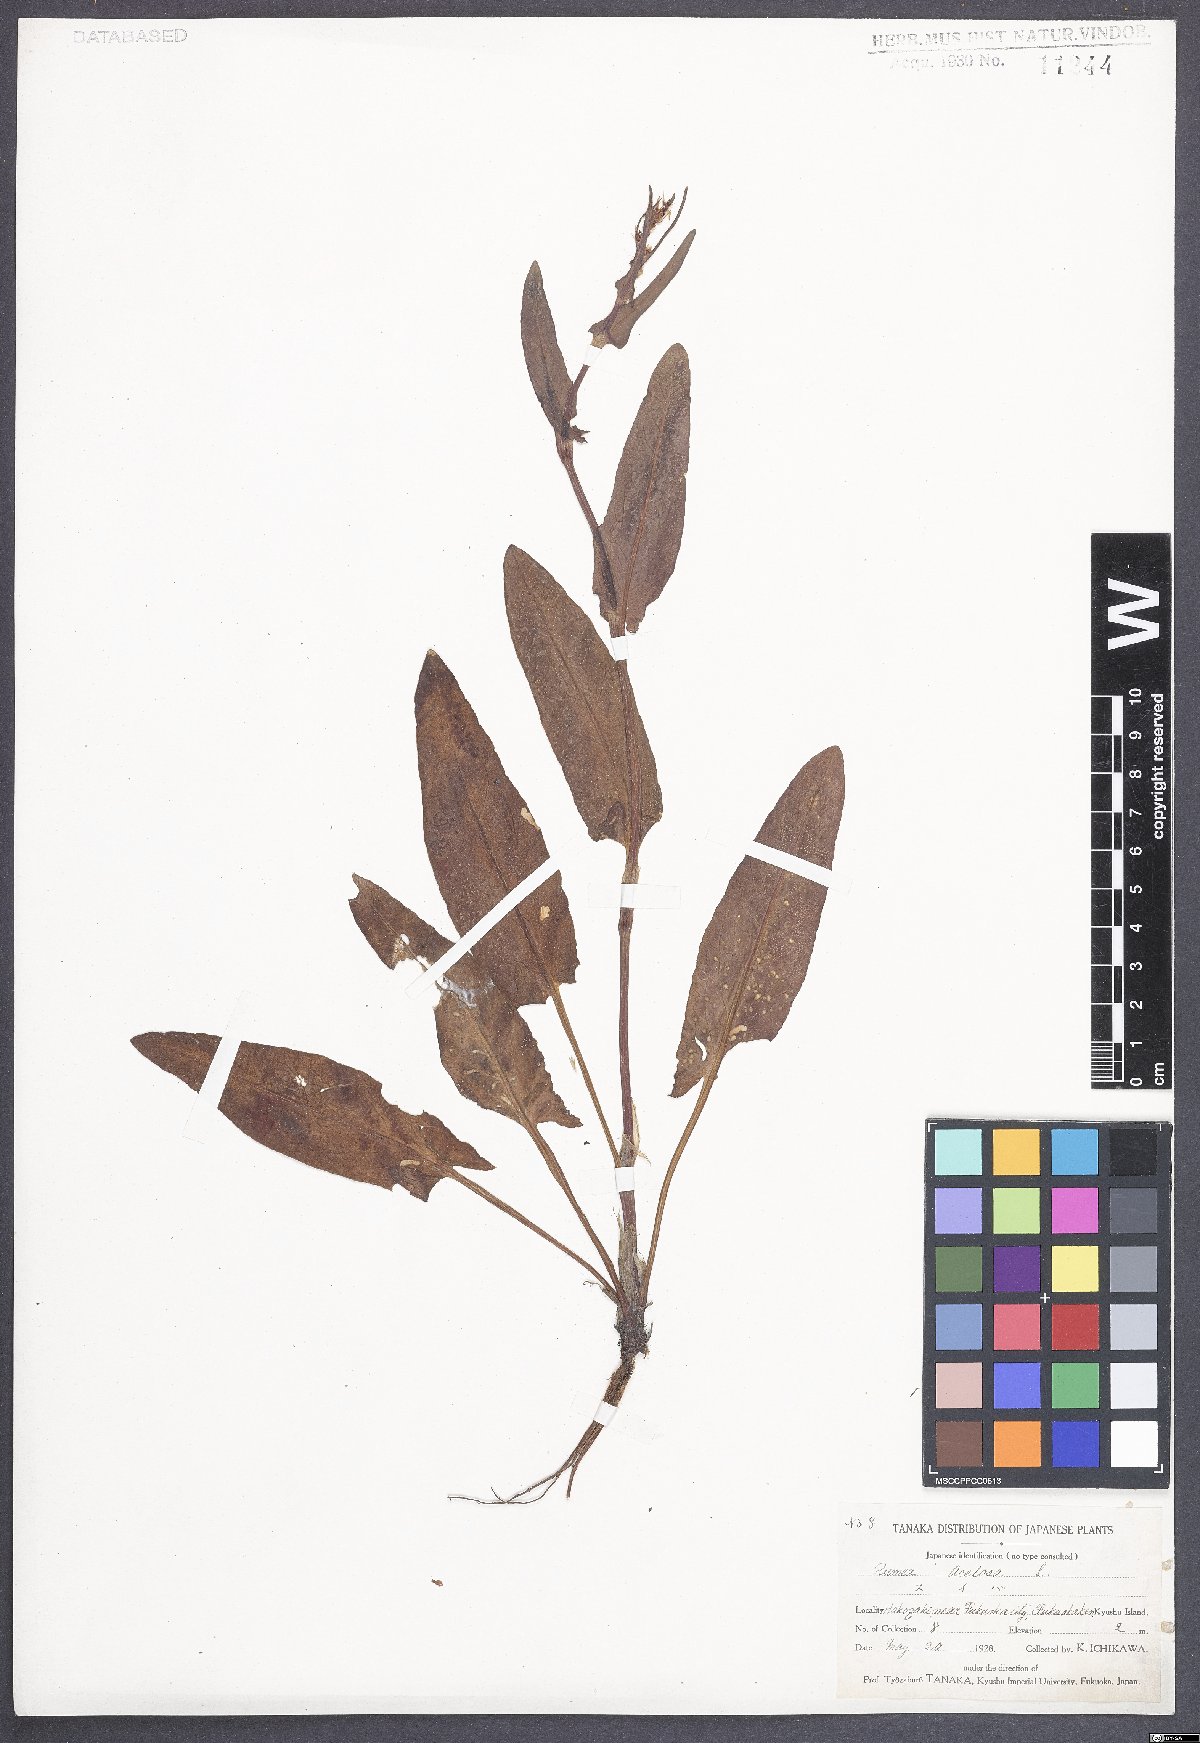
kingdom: Plantae
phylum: Tracheophyta
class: Magnoliopsida
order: Caryophyllales
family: Polygonaceae
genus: Rumex
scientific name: Rumex acetosa
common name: Garden sorrel
